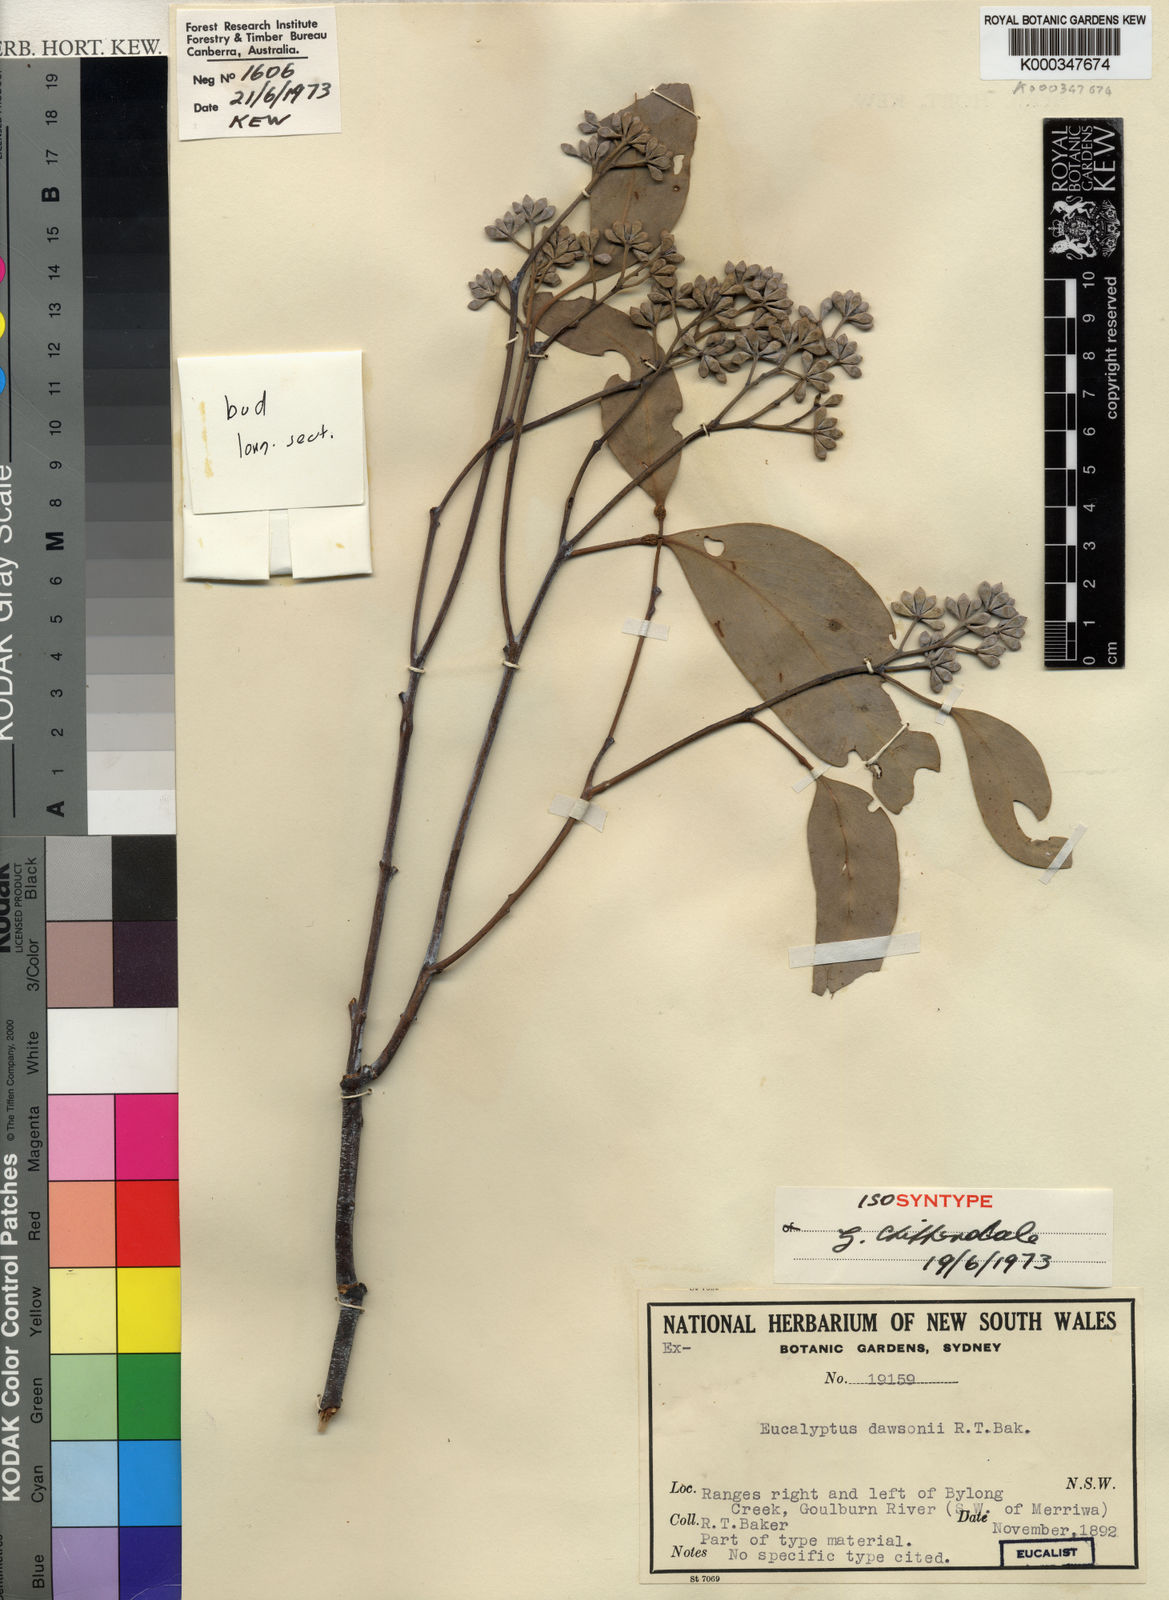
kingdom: Plantae
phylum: Tracheophyta
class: Magnoliopsida
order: Myrtales
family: Myrtaceae
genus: Eucalyptus
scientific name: Eucalyptus dawsonii
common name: Slaty-box
